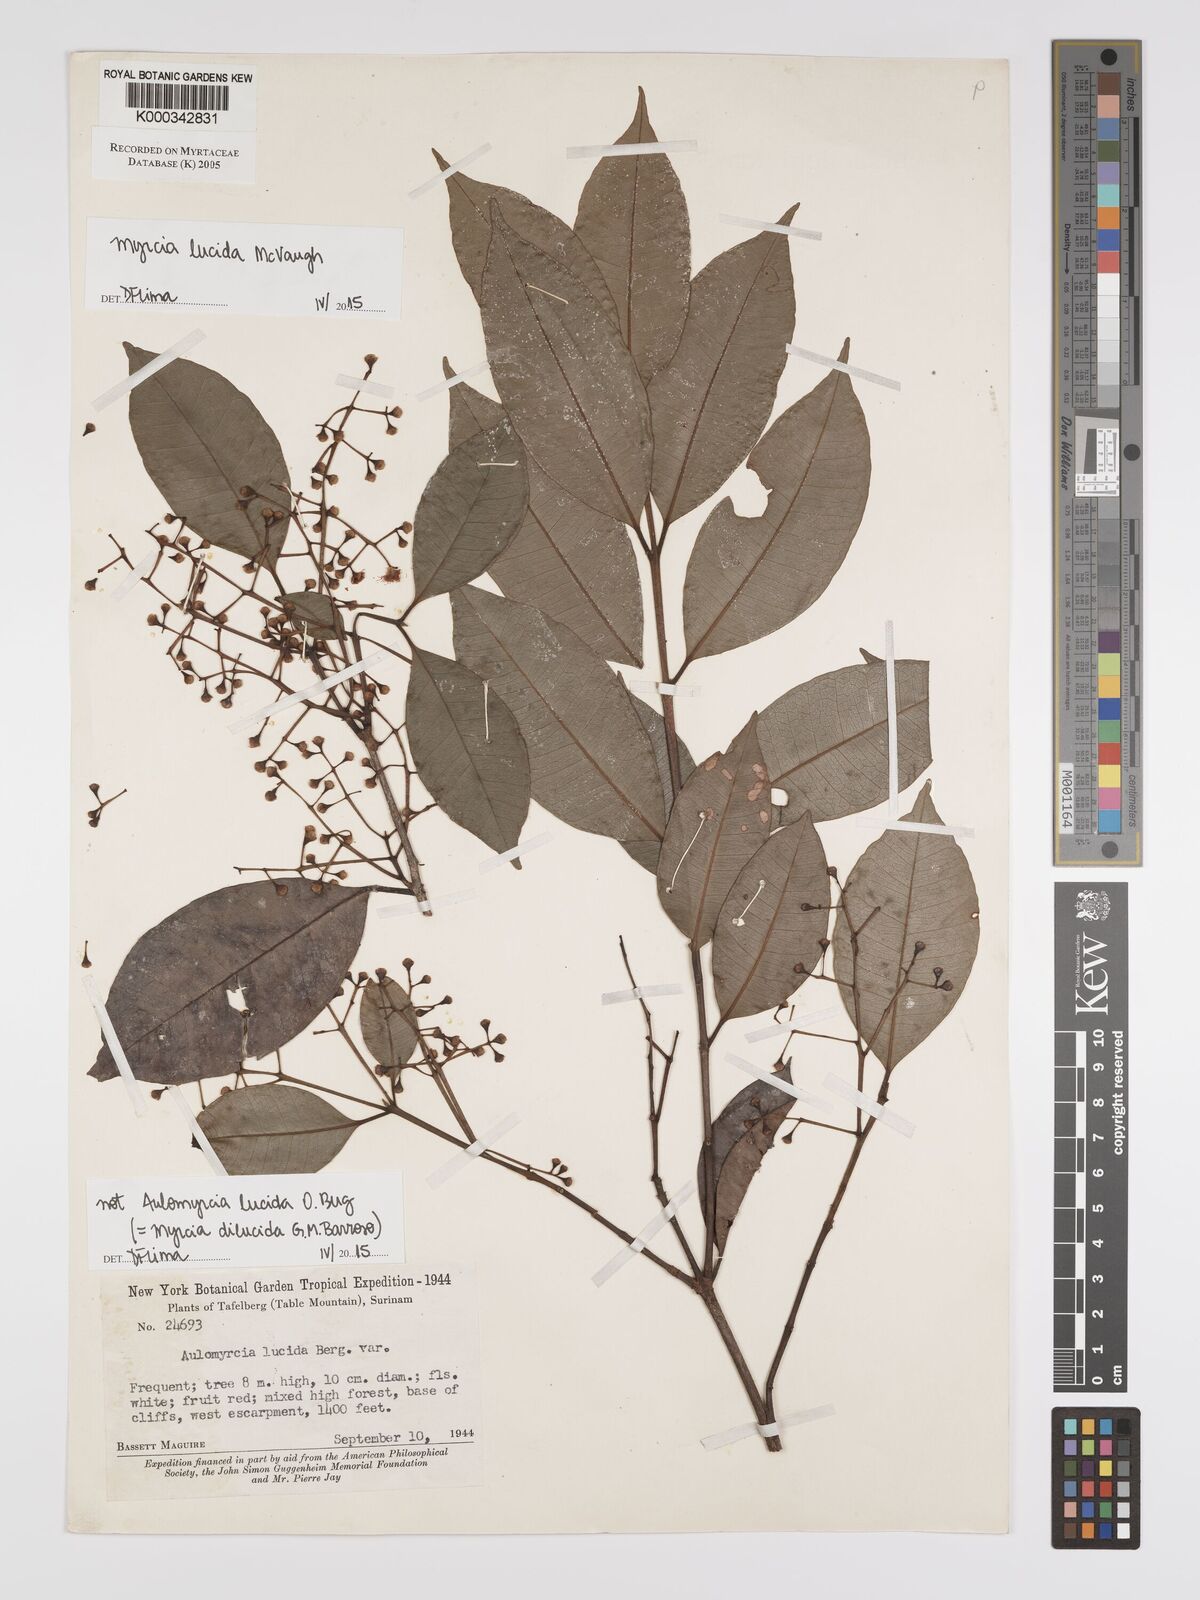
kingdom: Plantae
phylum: Tracheophyta
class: Magnoliopsida
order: Myrtales
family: Myrtaceae
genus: Myrcia
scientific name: Myrcia neomontana
